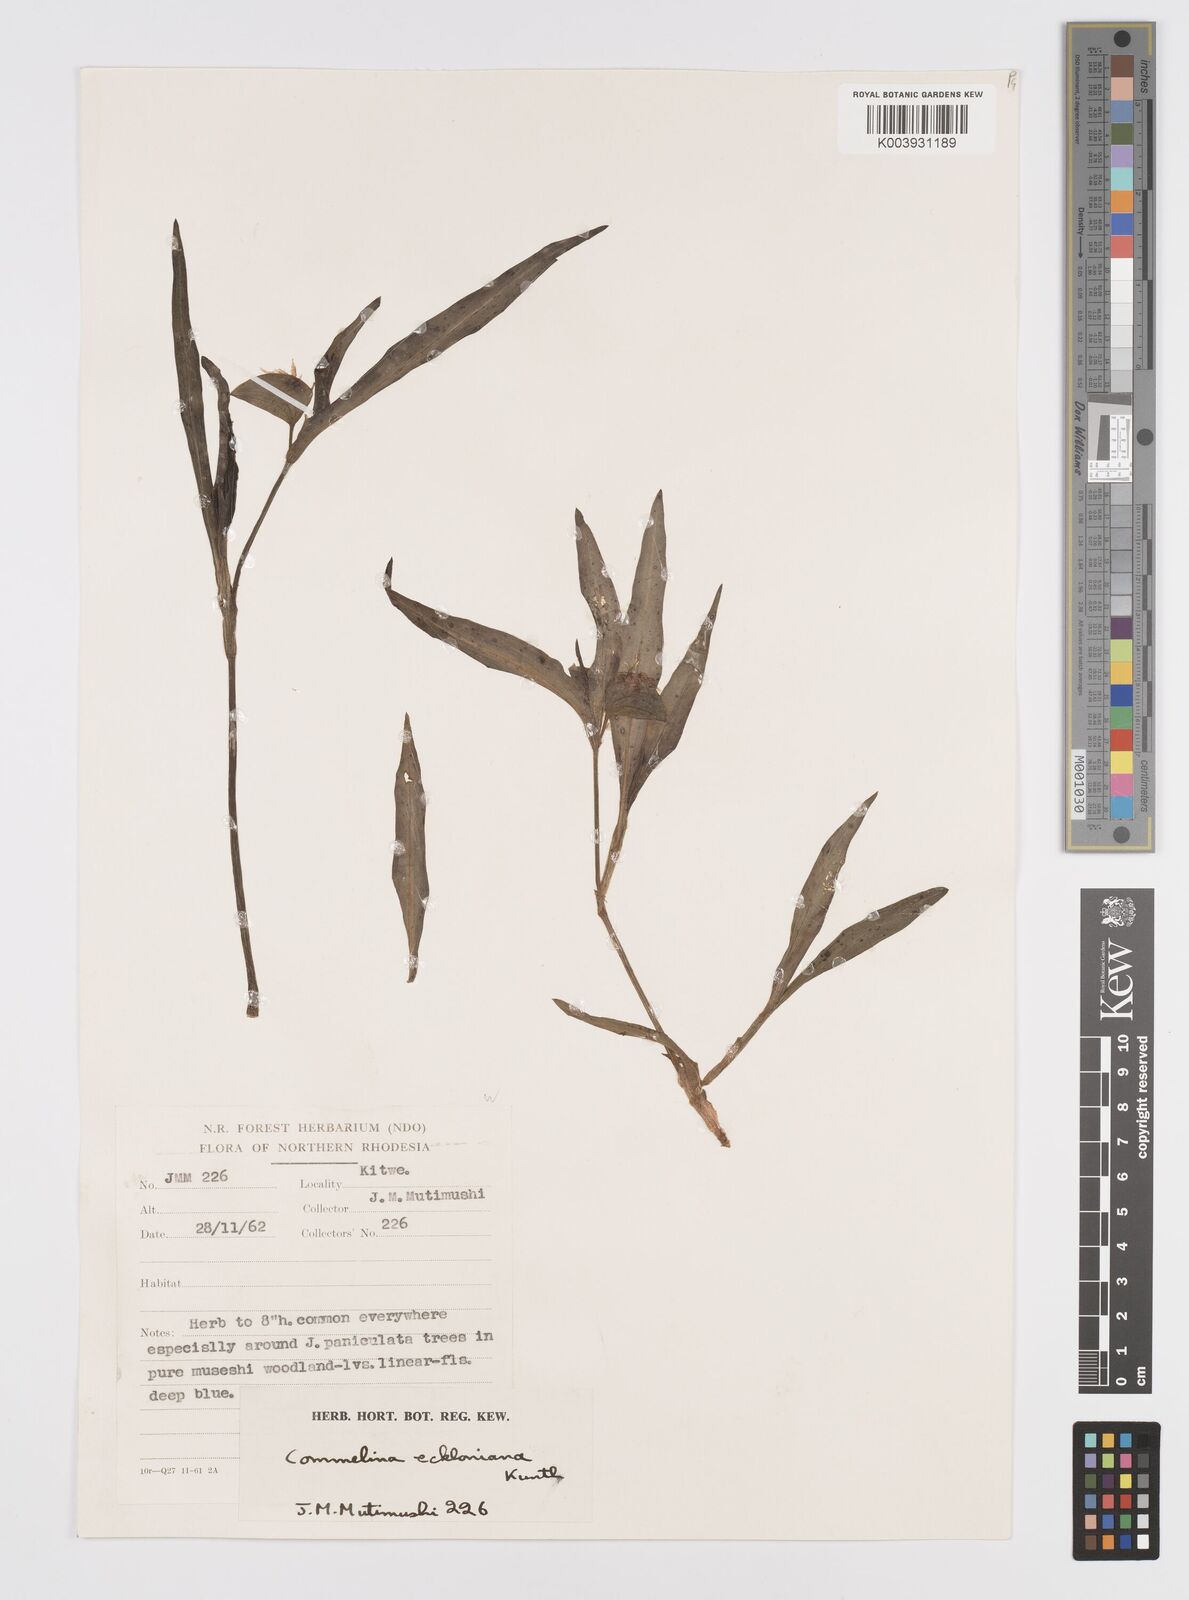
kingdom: Plantae
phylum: Tracheophyta
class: Liliopsida
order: Commelinales
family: Commelinaceae
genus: Commelina
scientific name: Commelina eckloniana
